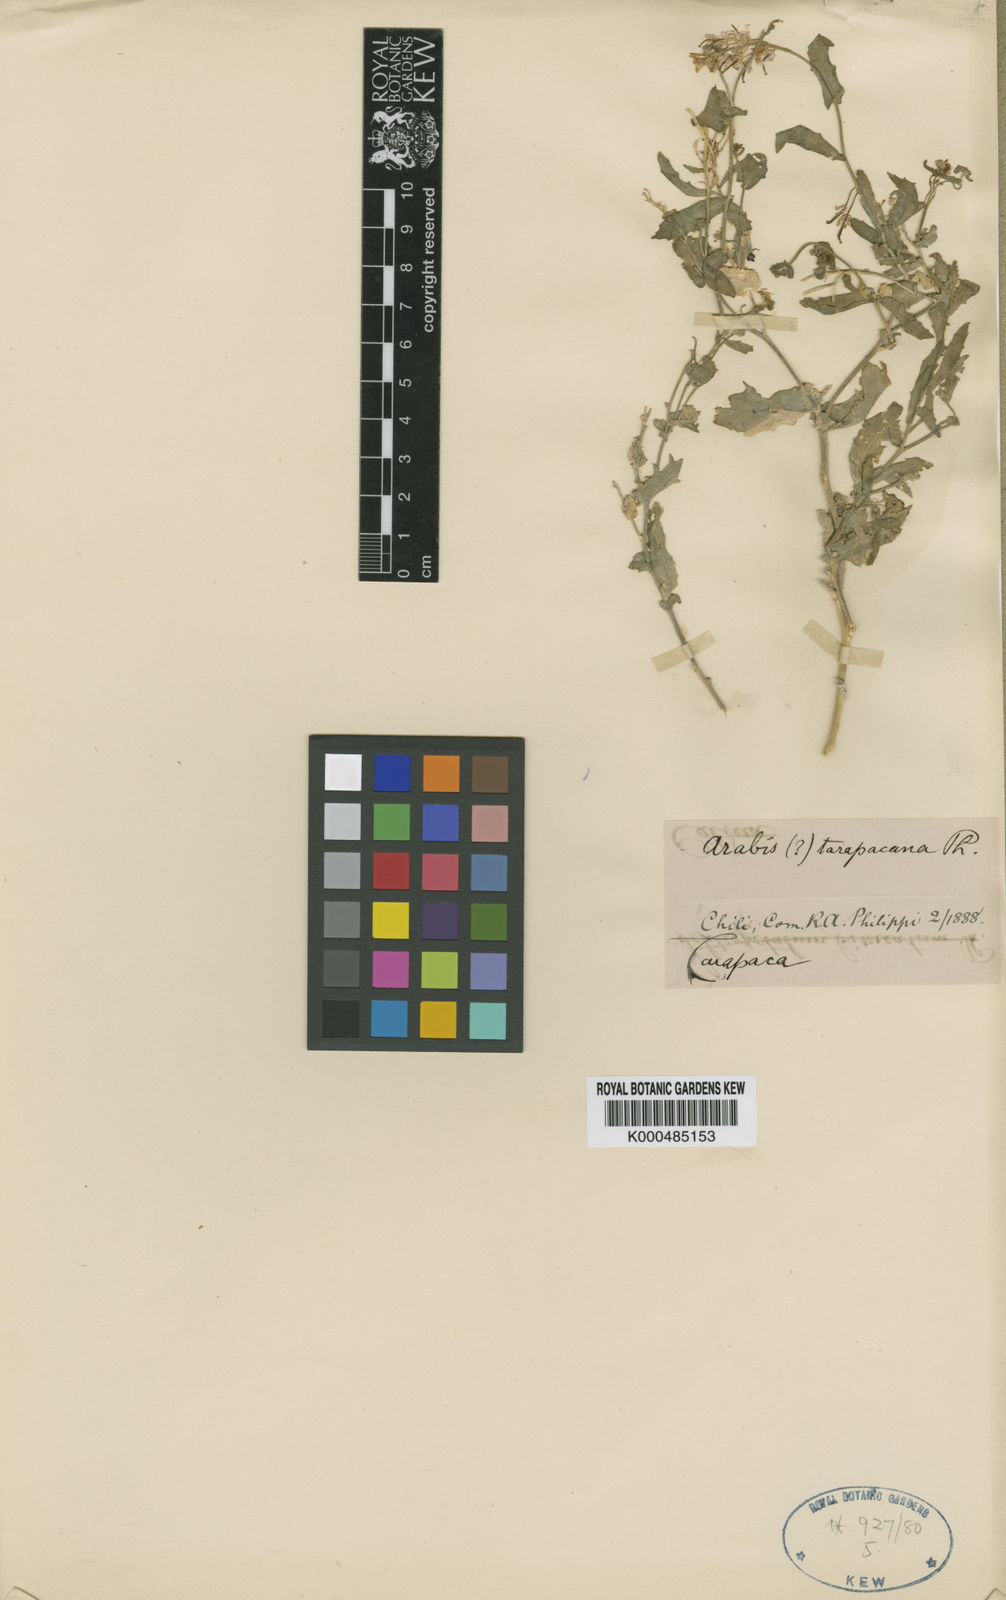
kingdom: Plantae
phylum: Tracheophyta
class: Magnoliopsida
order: Brassicales
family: Brassicaceae
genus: Arabis
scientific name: Arabis
